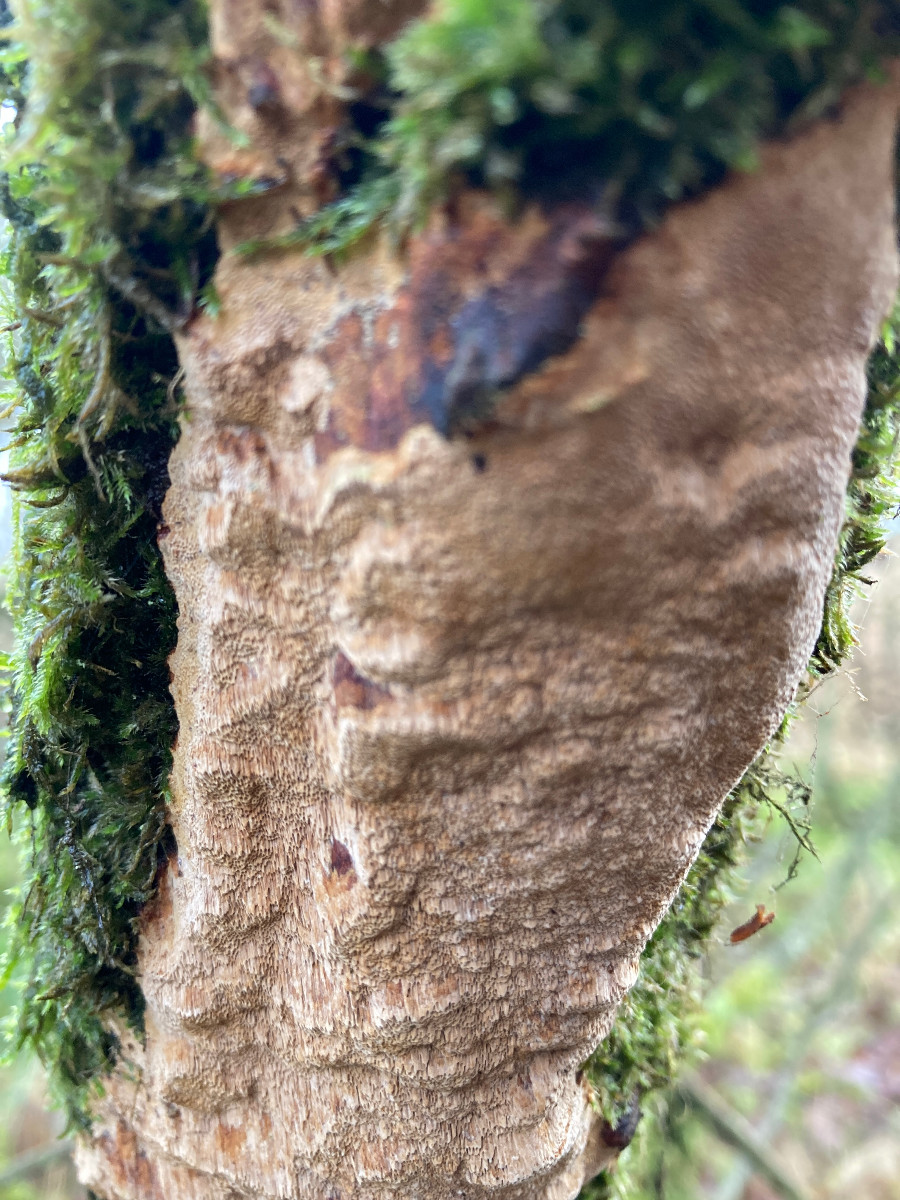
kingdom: Fungi
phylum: Basidiomycota
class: Agaricomycetes
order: Hymenochaetales
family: Hymenochaetaceae
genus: Fuscoporia
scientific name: Fuscoporia ferrea
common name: skorpe-ildporesvamp
